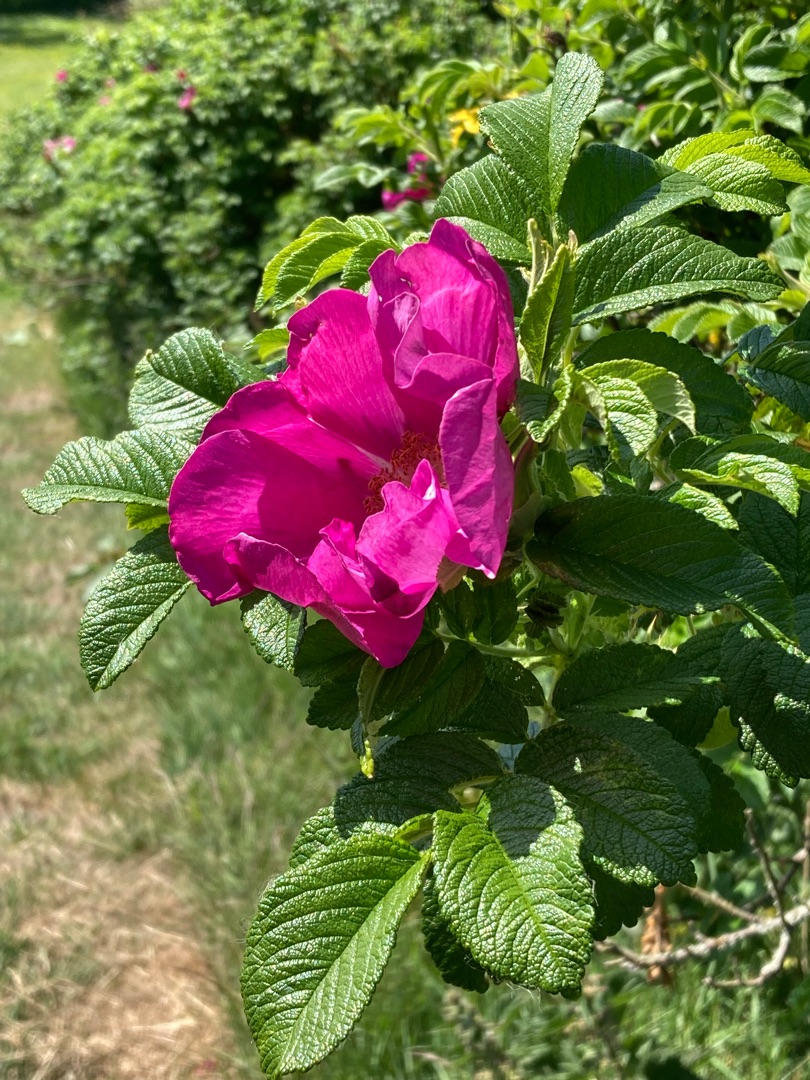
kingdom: Plantae
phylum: Tracheophyta
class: Magnoliopsida
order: Rosales
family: Rosaceae
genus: Rosa
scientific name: Rosa rugosa
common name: Rynket rose
